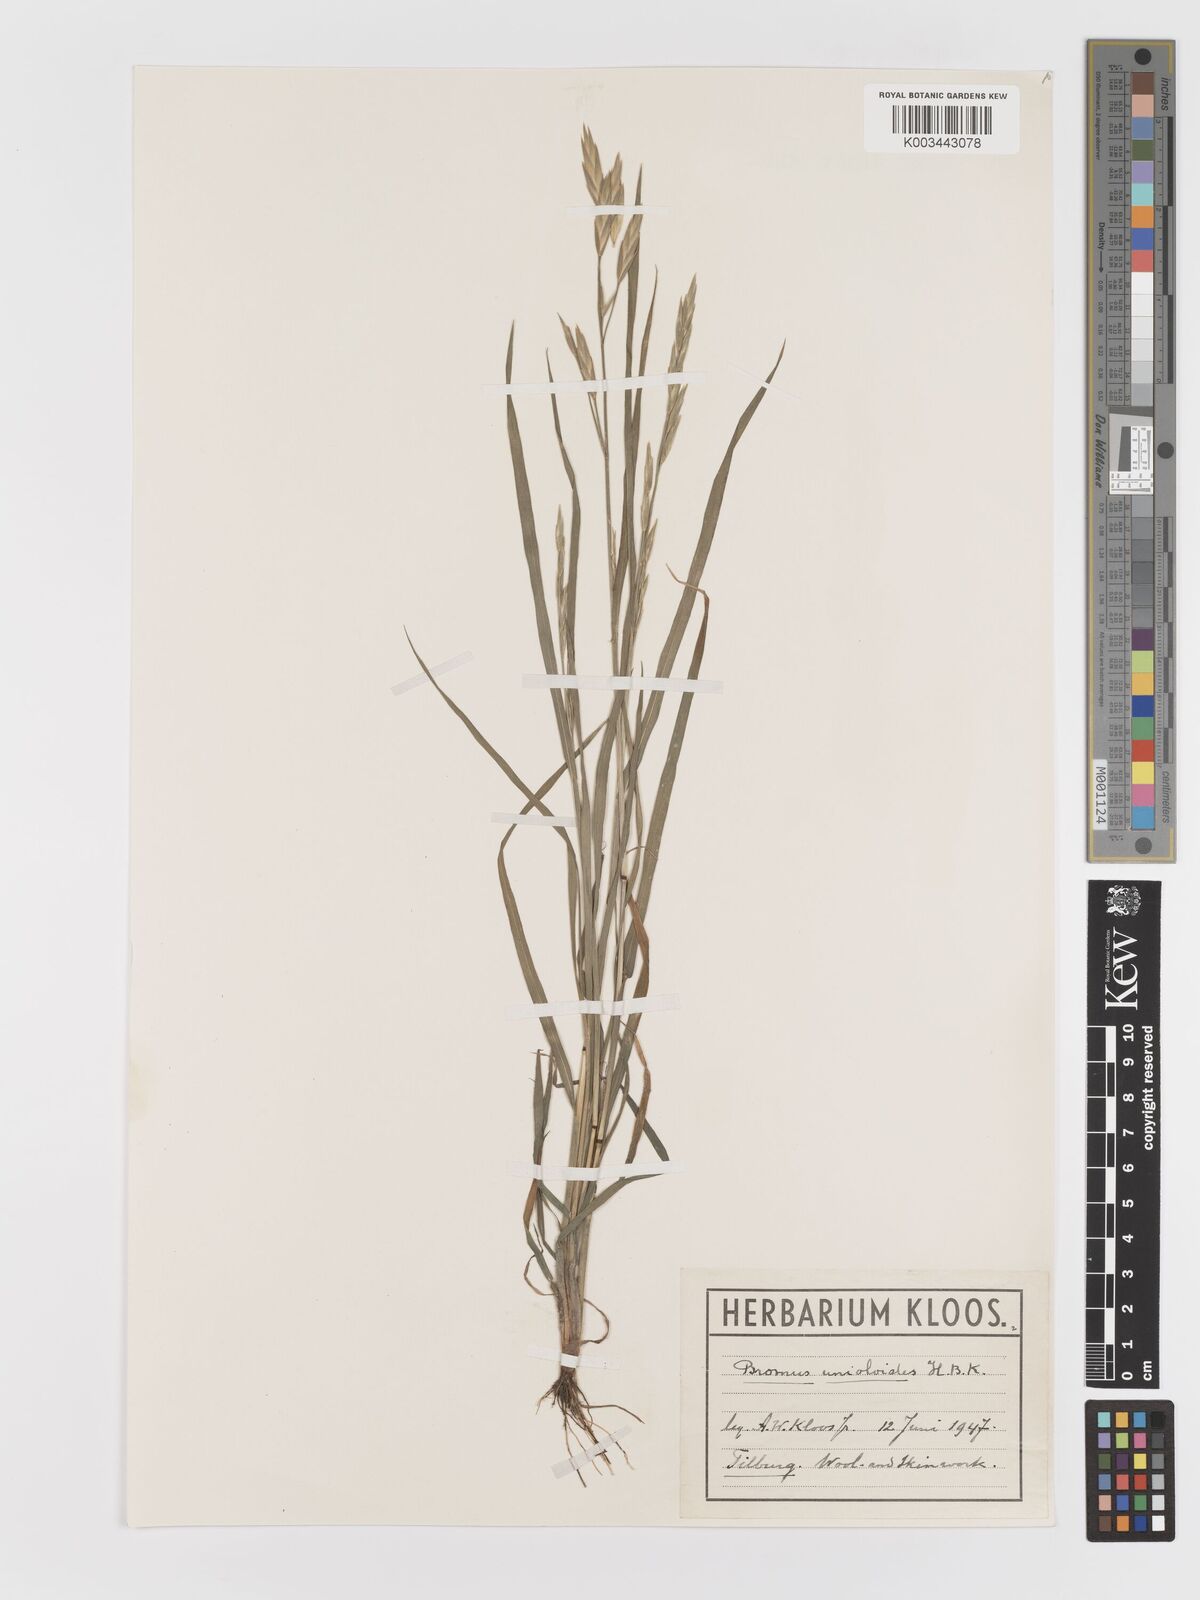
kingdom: Plantae
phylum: Tracheophyta
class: Liliopsida
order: Poales
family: Poaceae
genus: Bromus
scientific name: Bromus catharticus
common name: Rescuegrass
